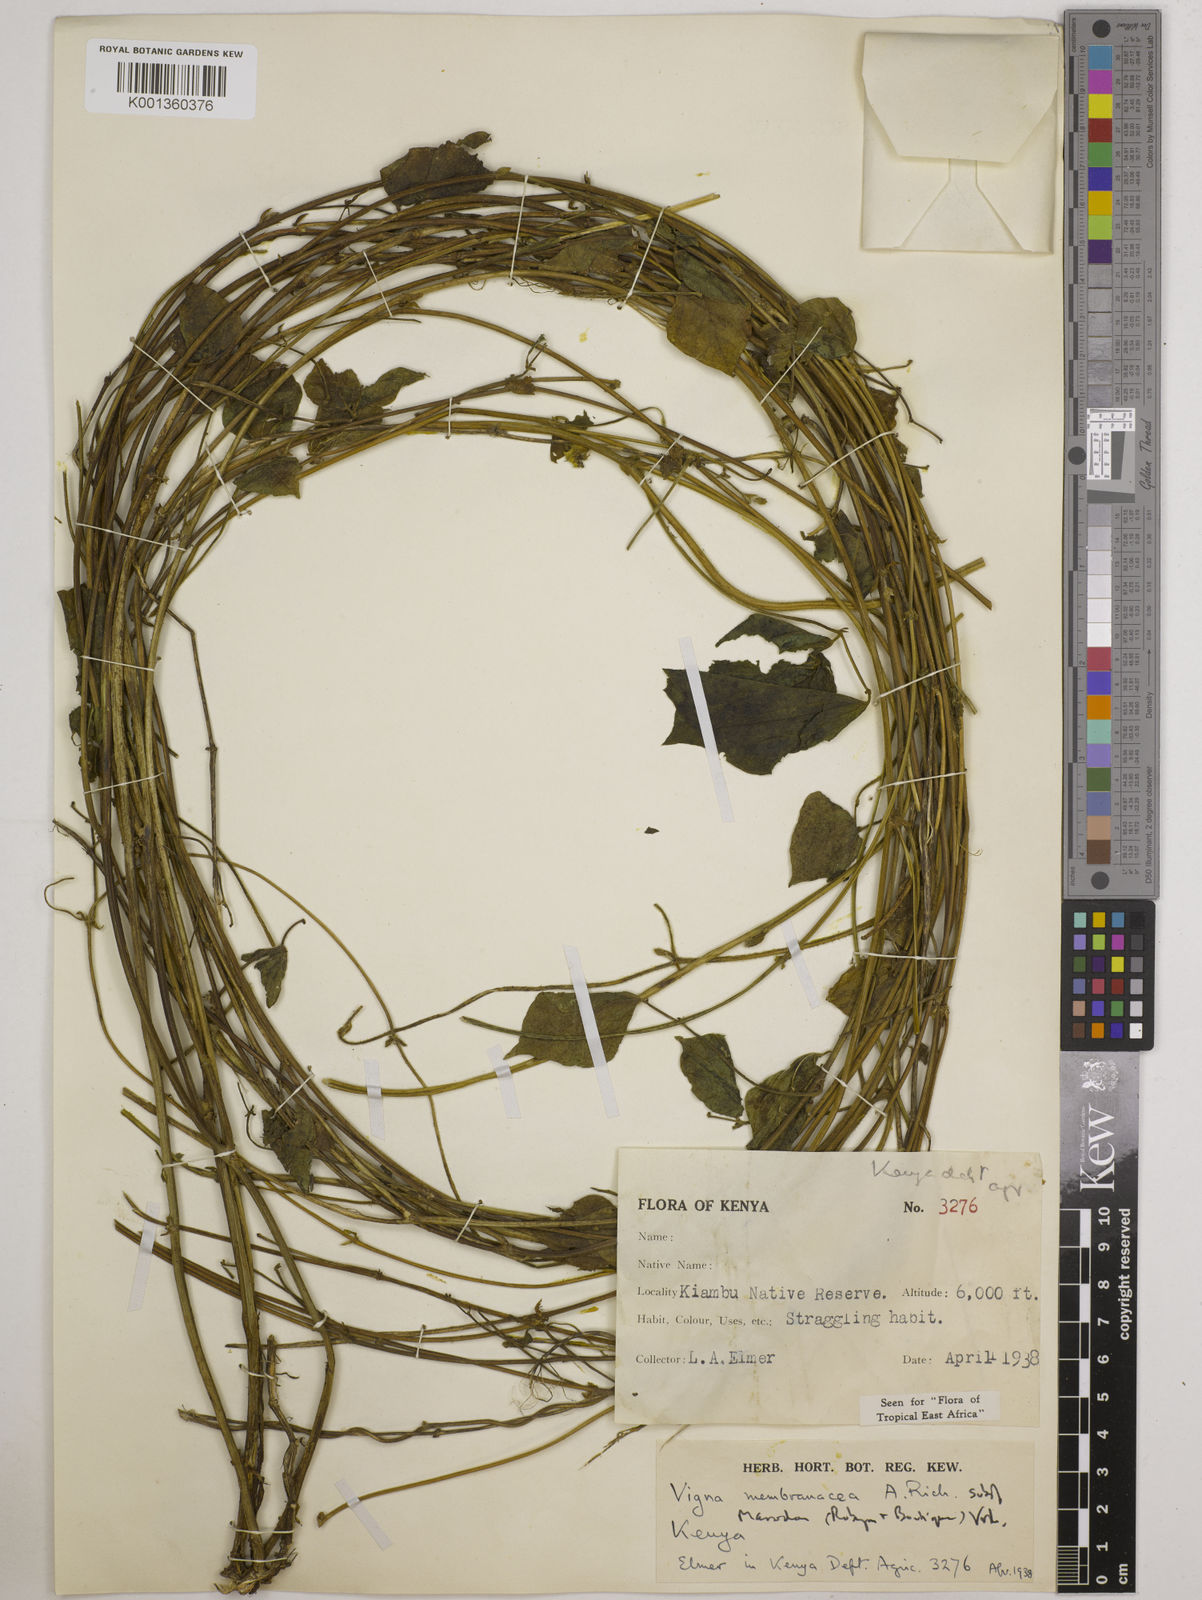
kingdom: Plantae
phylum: Tracheophyta
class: Magnoliopsida
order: Fabales
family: Fabaceae
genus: Vigna
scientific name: Vigna
